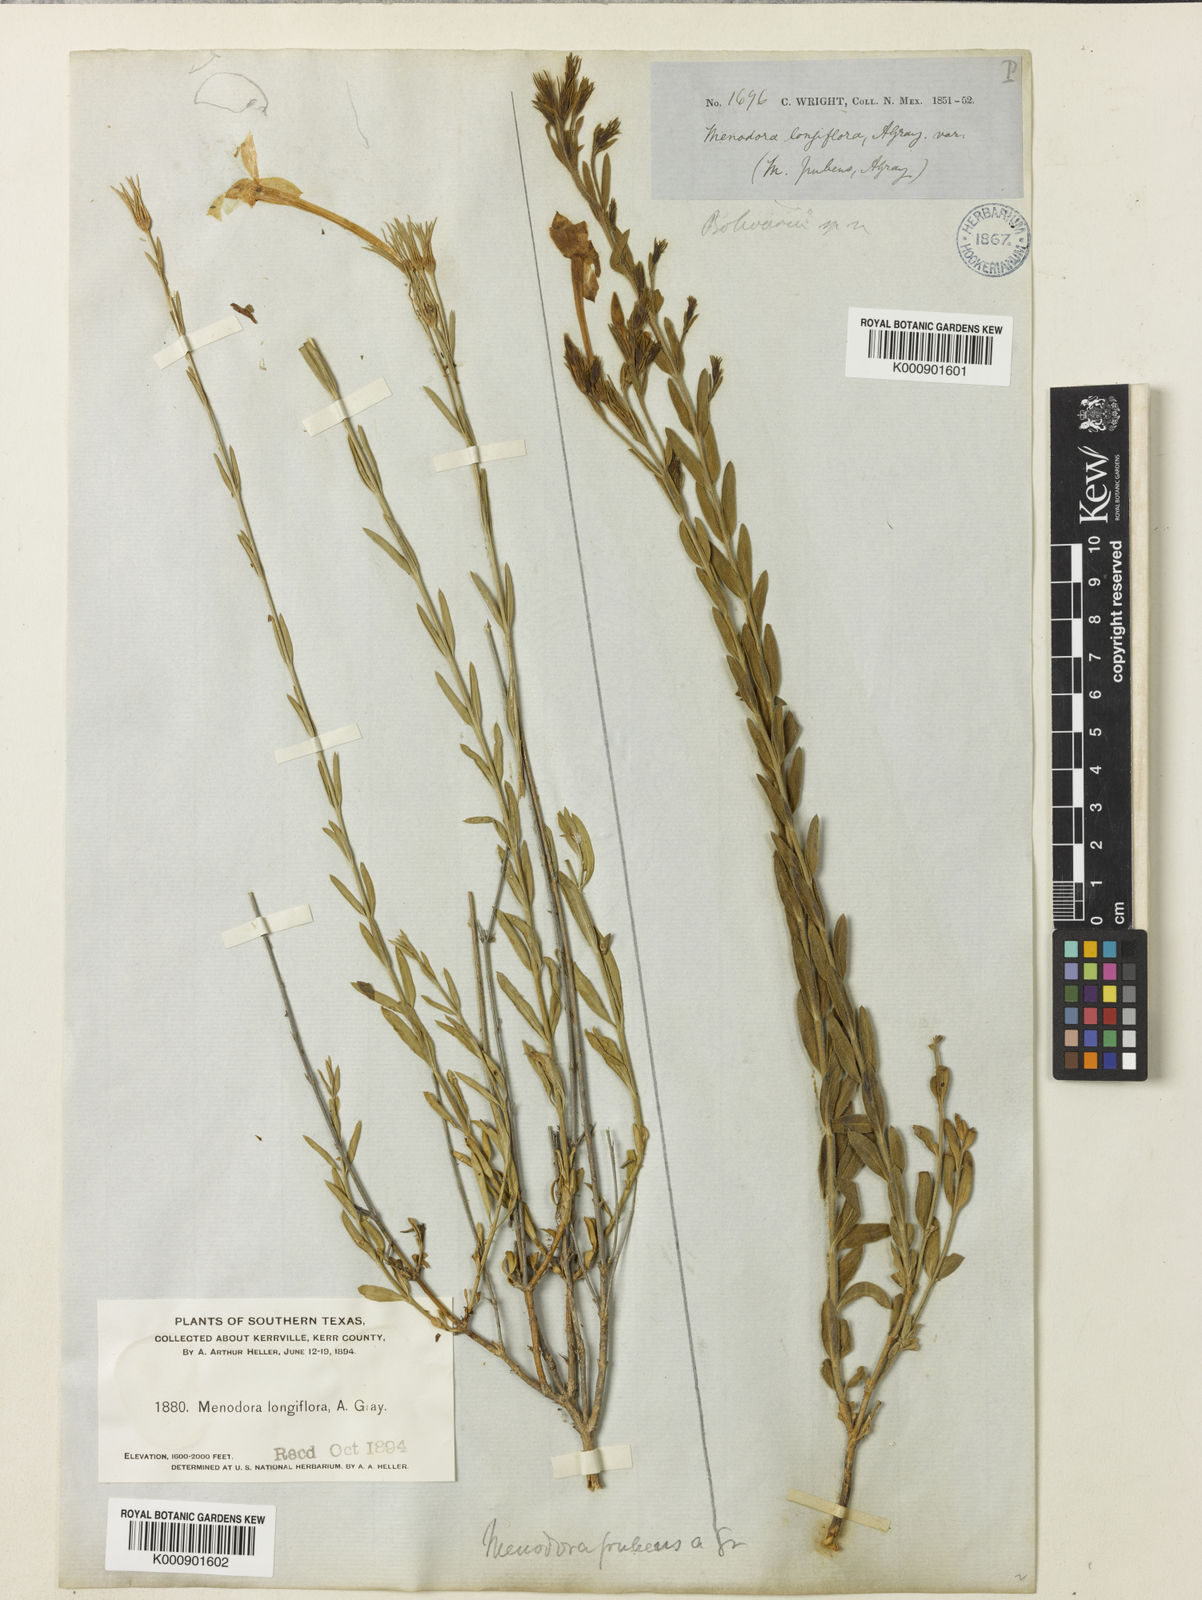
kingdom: Plantae
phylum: Tracheophyta
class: Magnoliopsida
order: Lamiales
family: Oleaceae
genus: Menodora
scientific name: Menodora longiflora
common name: Showy menodora
